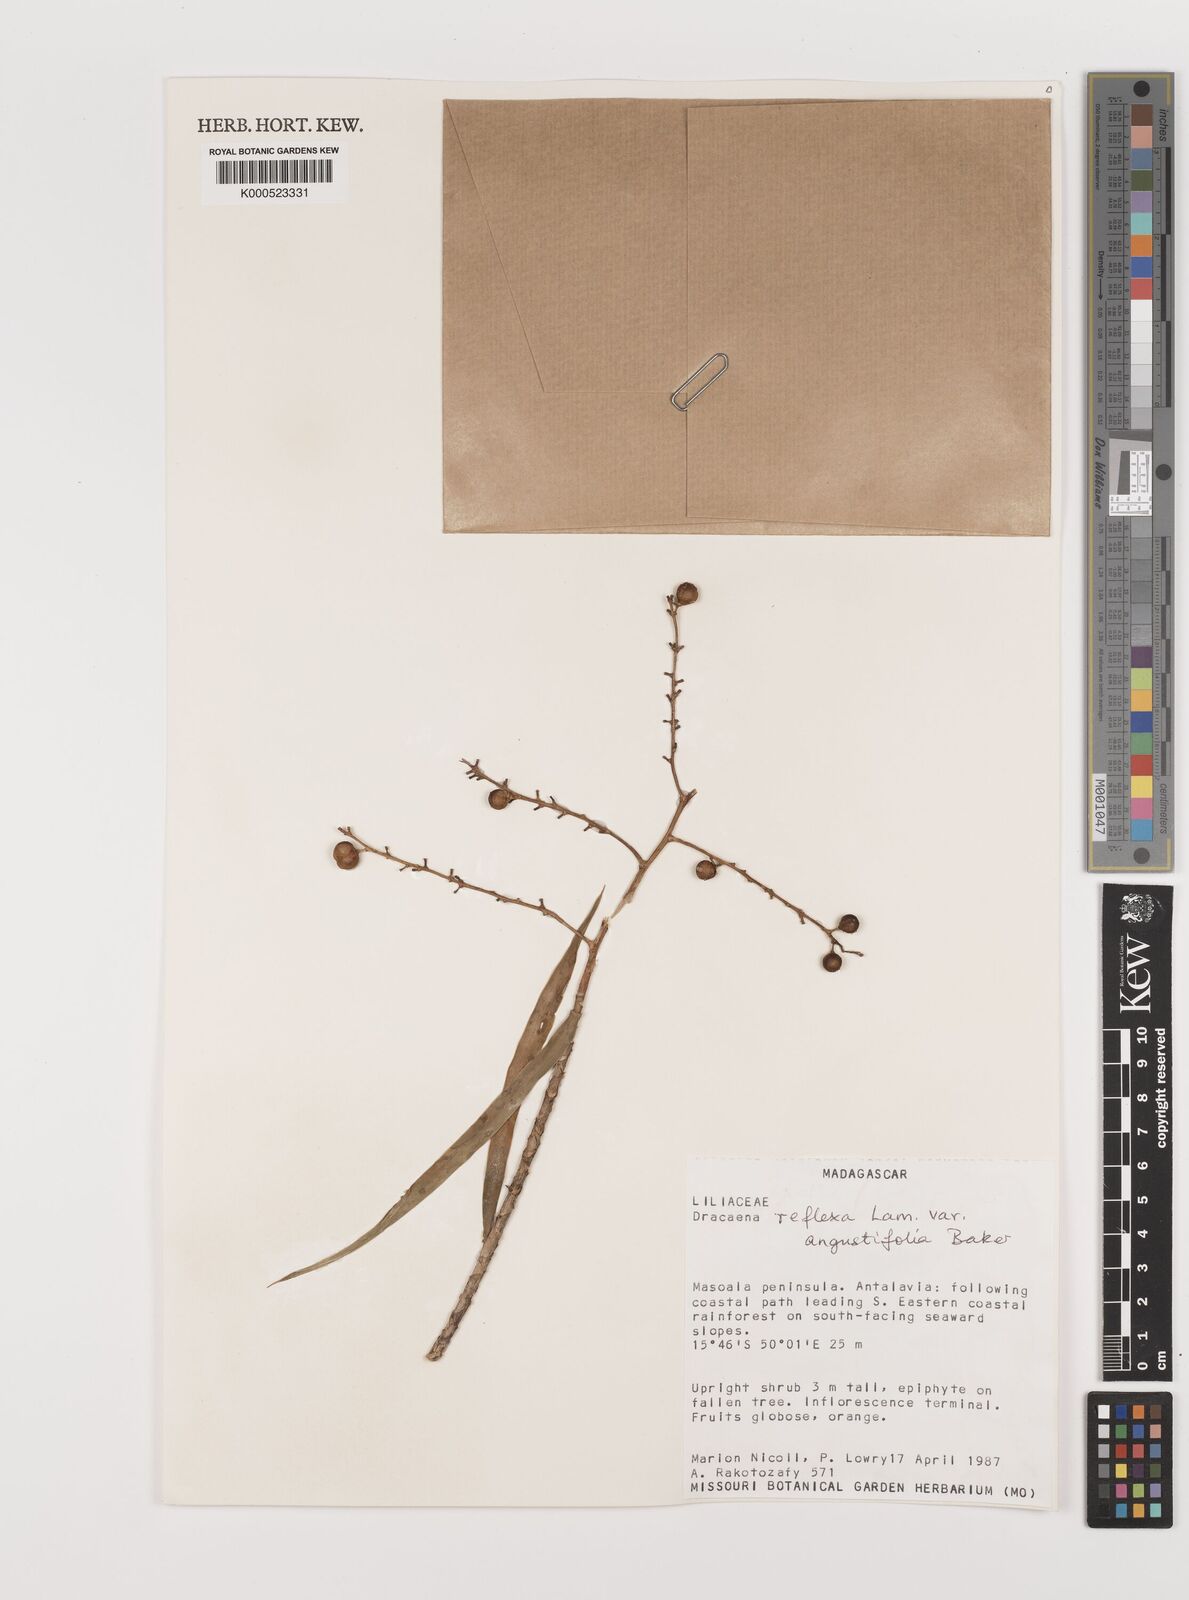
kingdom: Plantae
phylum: Tracheophyta
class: Liliopsida
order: Asparagales
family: Asparagaceae
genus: Dracaena
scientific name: Dracaena reflexa
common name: Song-of-india
